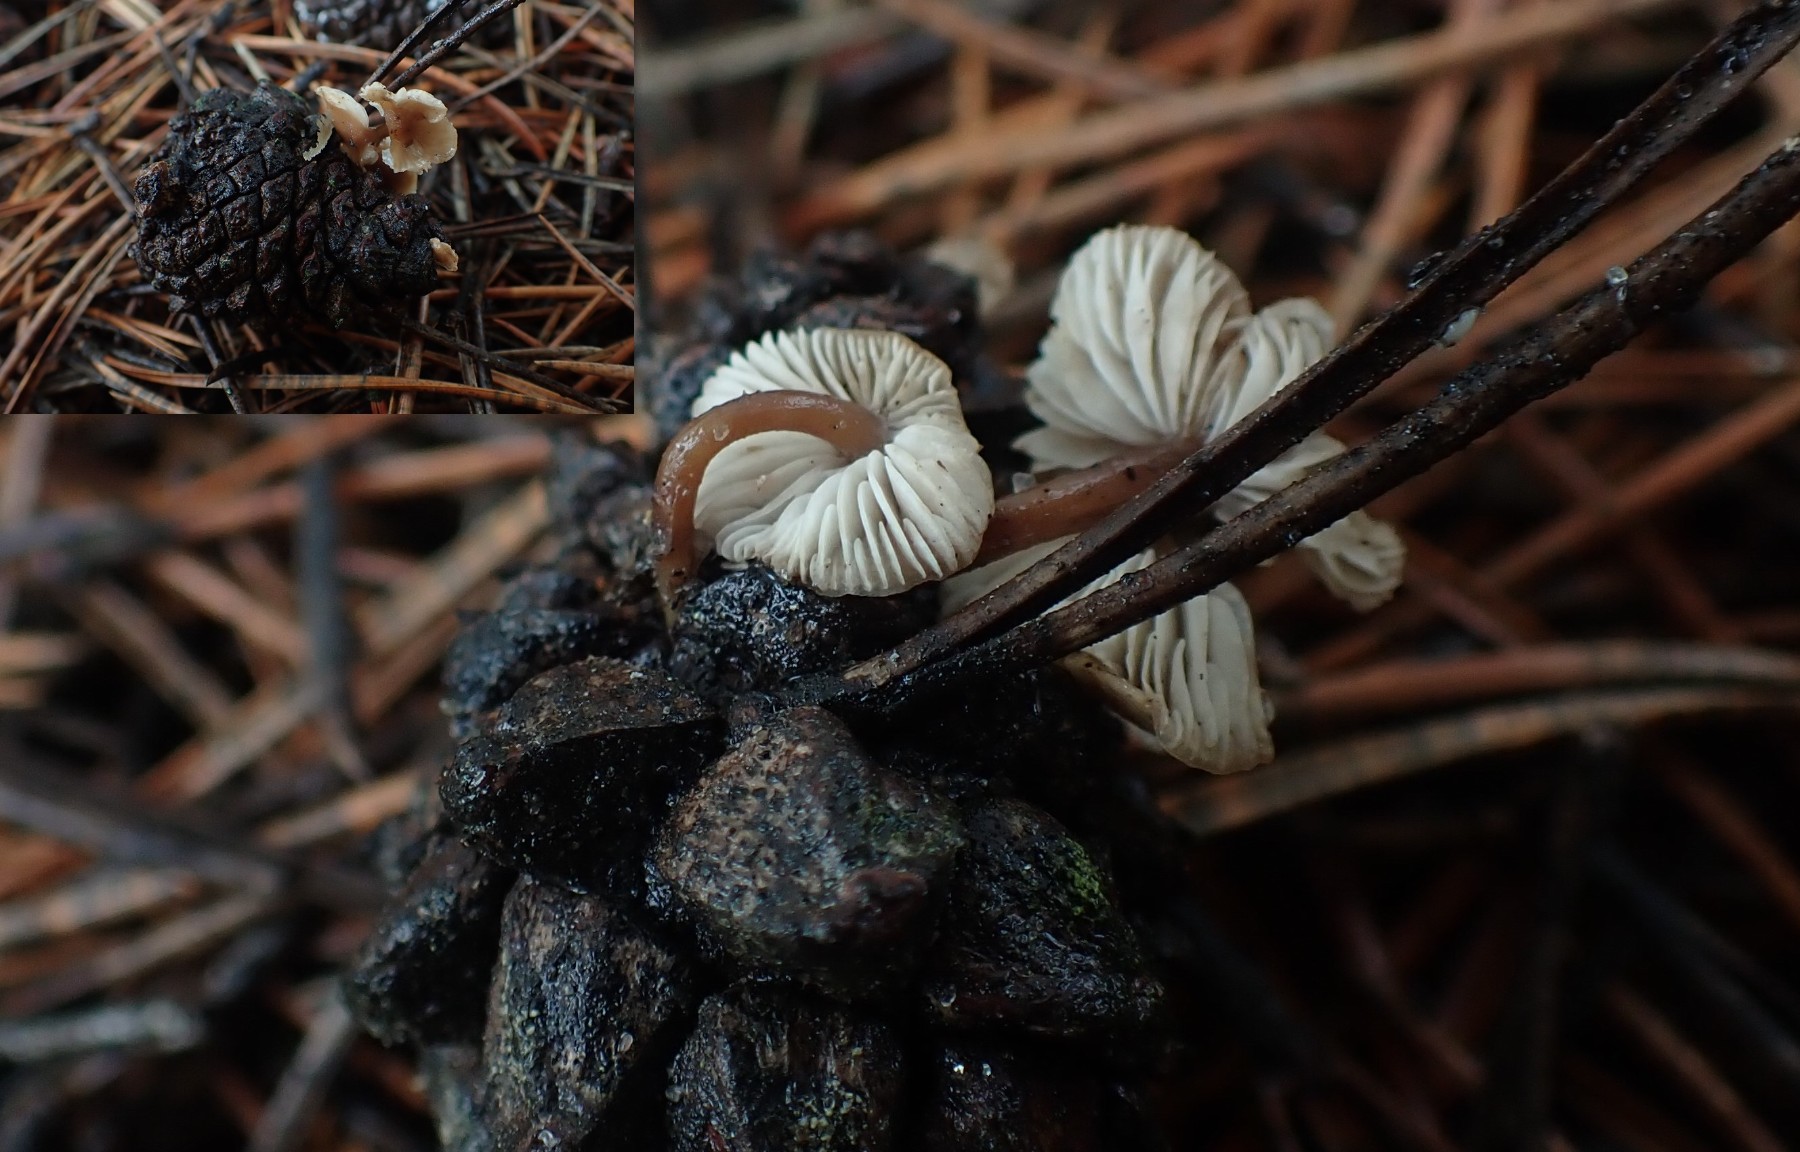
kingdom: Fungi
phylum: Basidiomycota
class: Agaricomycetes
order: Agaricales
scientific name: Agaricales
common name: champignonordenen
